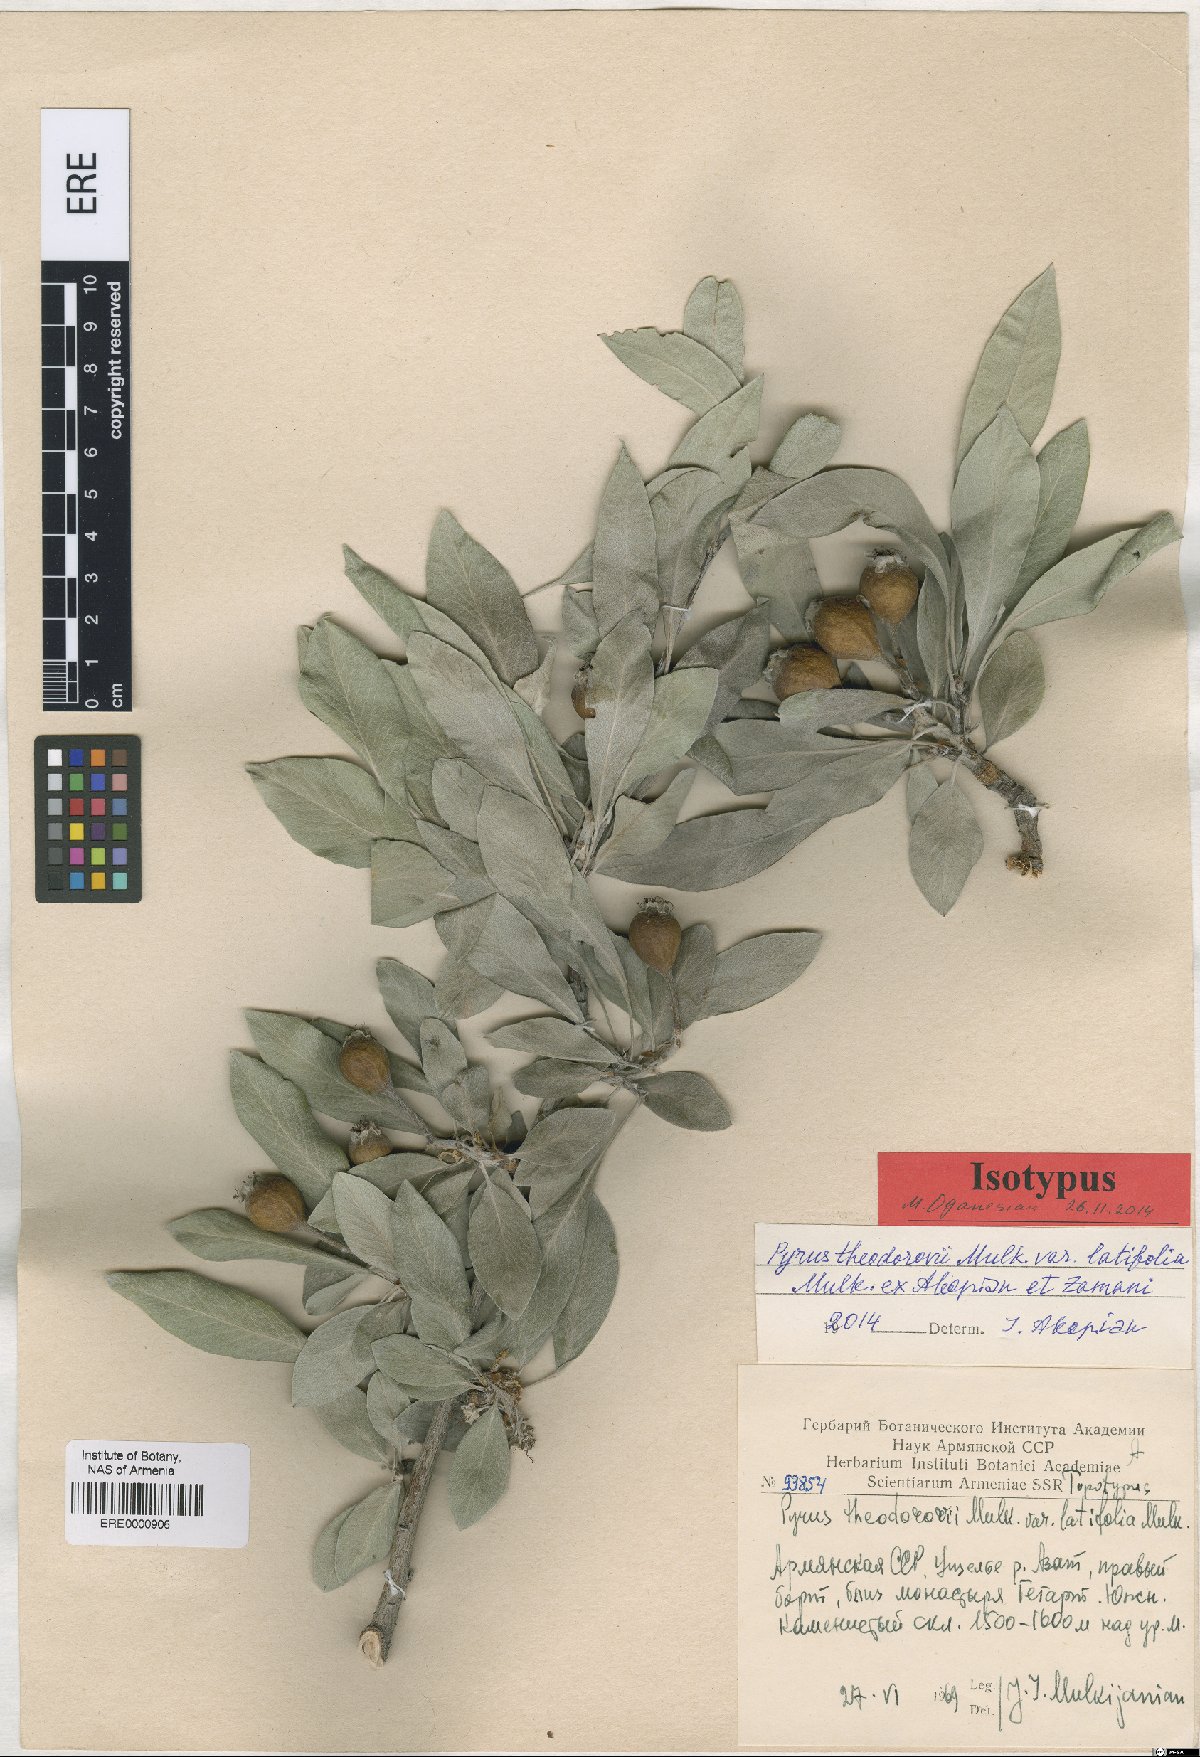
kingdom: Plantae
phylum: Tracheophyta
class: Magnoliopsida
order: Rosales
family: Rosaceae
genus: Pyrus
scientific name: Pyrus theodorovii
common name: Teodorov's pear
